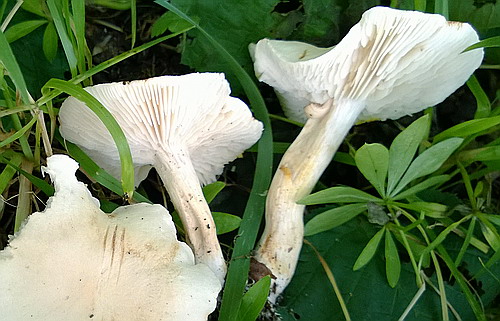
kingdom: Fungi
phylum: Basidiomycota
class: Agaricomycetes
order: Agaricales
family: Tricholomataceae
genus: Tricholoma
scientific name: Tricholoma album
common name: honning-ridderhat
